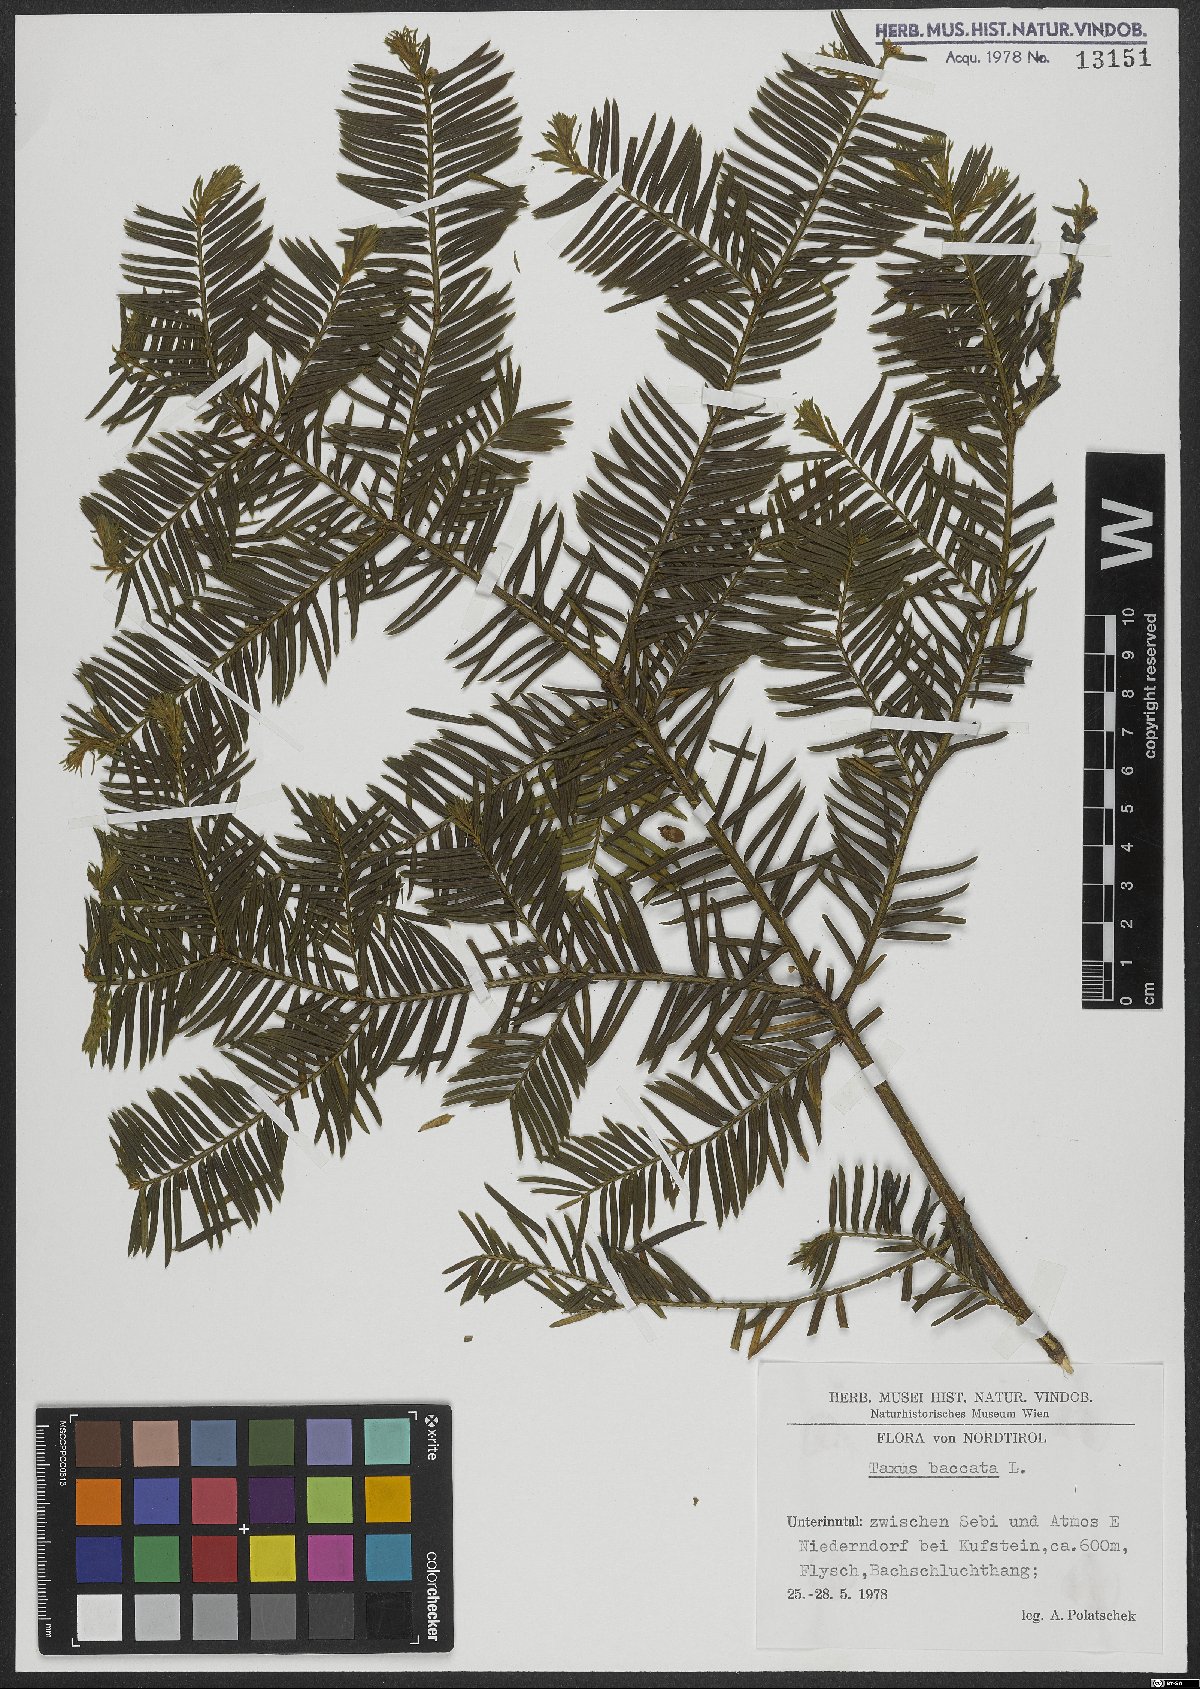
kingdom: Plantae
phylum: Tracheophyta
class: Pinopsida
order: Pinales
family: Taxaceae
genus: Taxus
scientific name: Taxus baccata
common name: Yew
